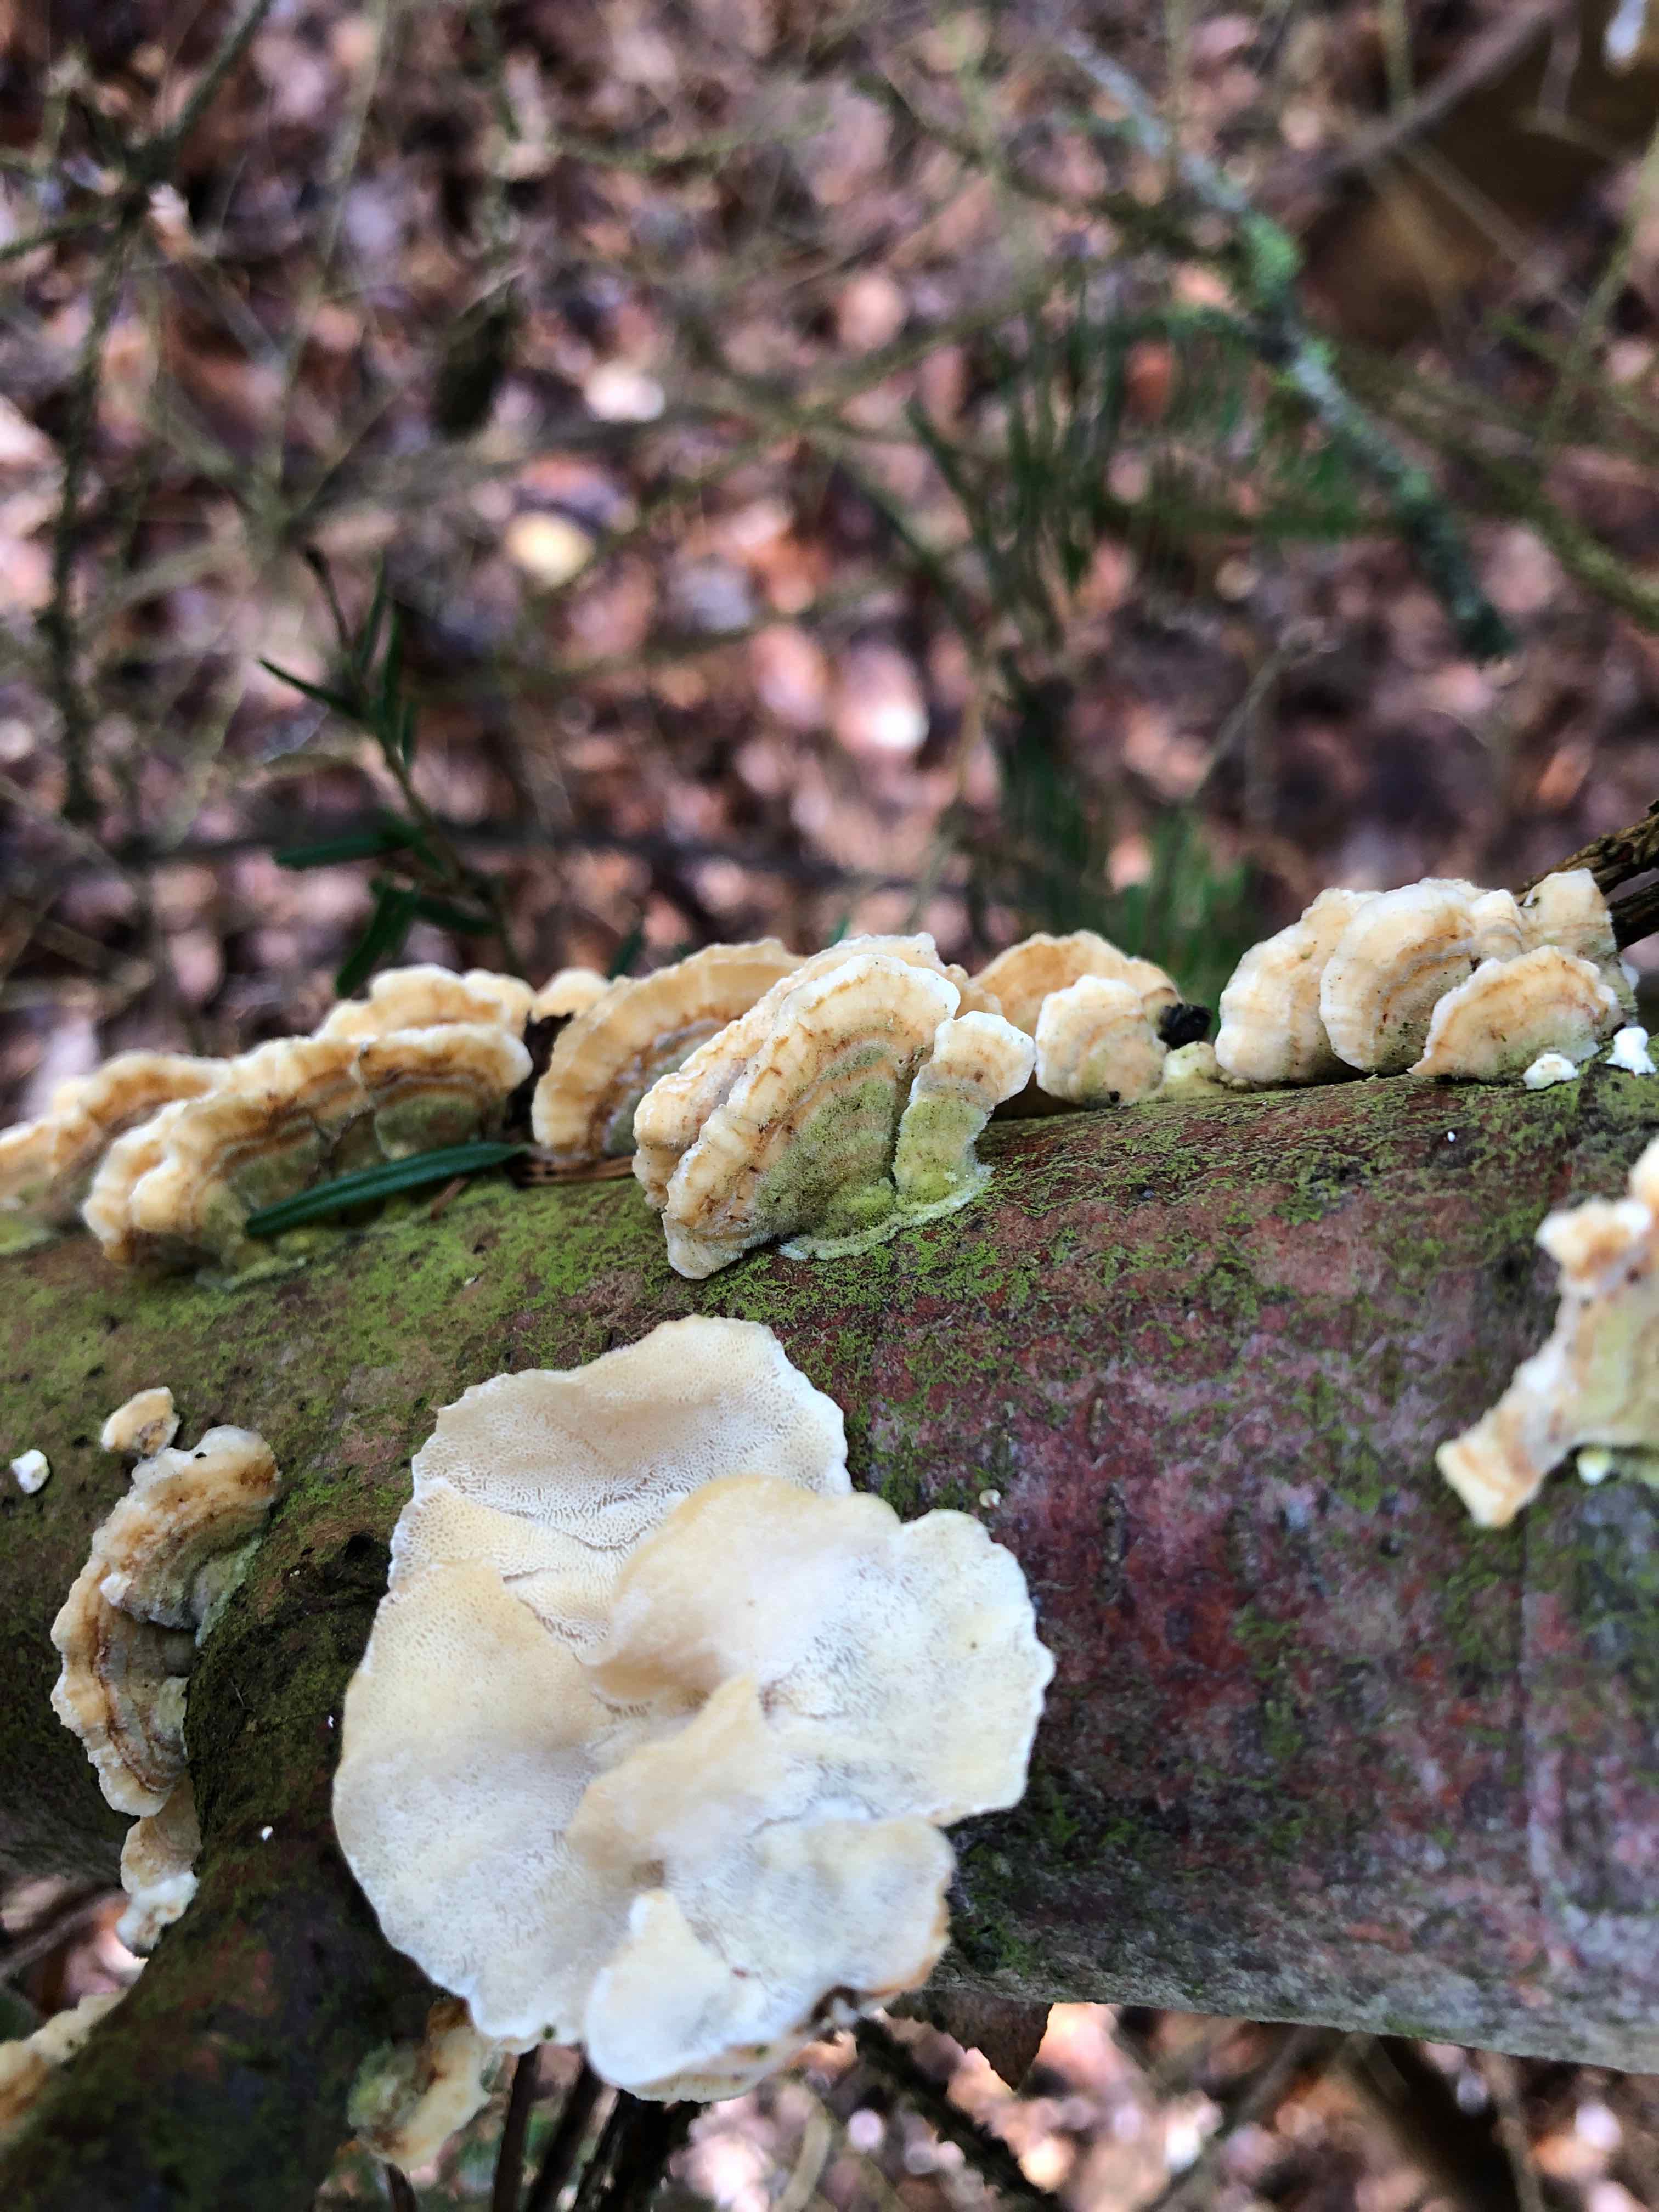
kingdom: Fungi
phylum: Basidiomycota
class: Agaricomycetes
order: Polyporales
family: Polyporaceae
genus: Trametes
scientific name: Trametes versicolor
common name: broget læderporesvamp
